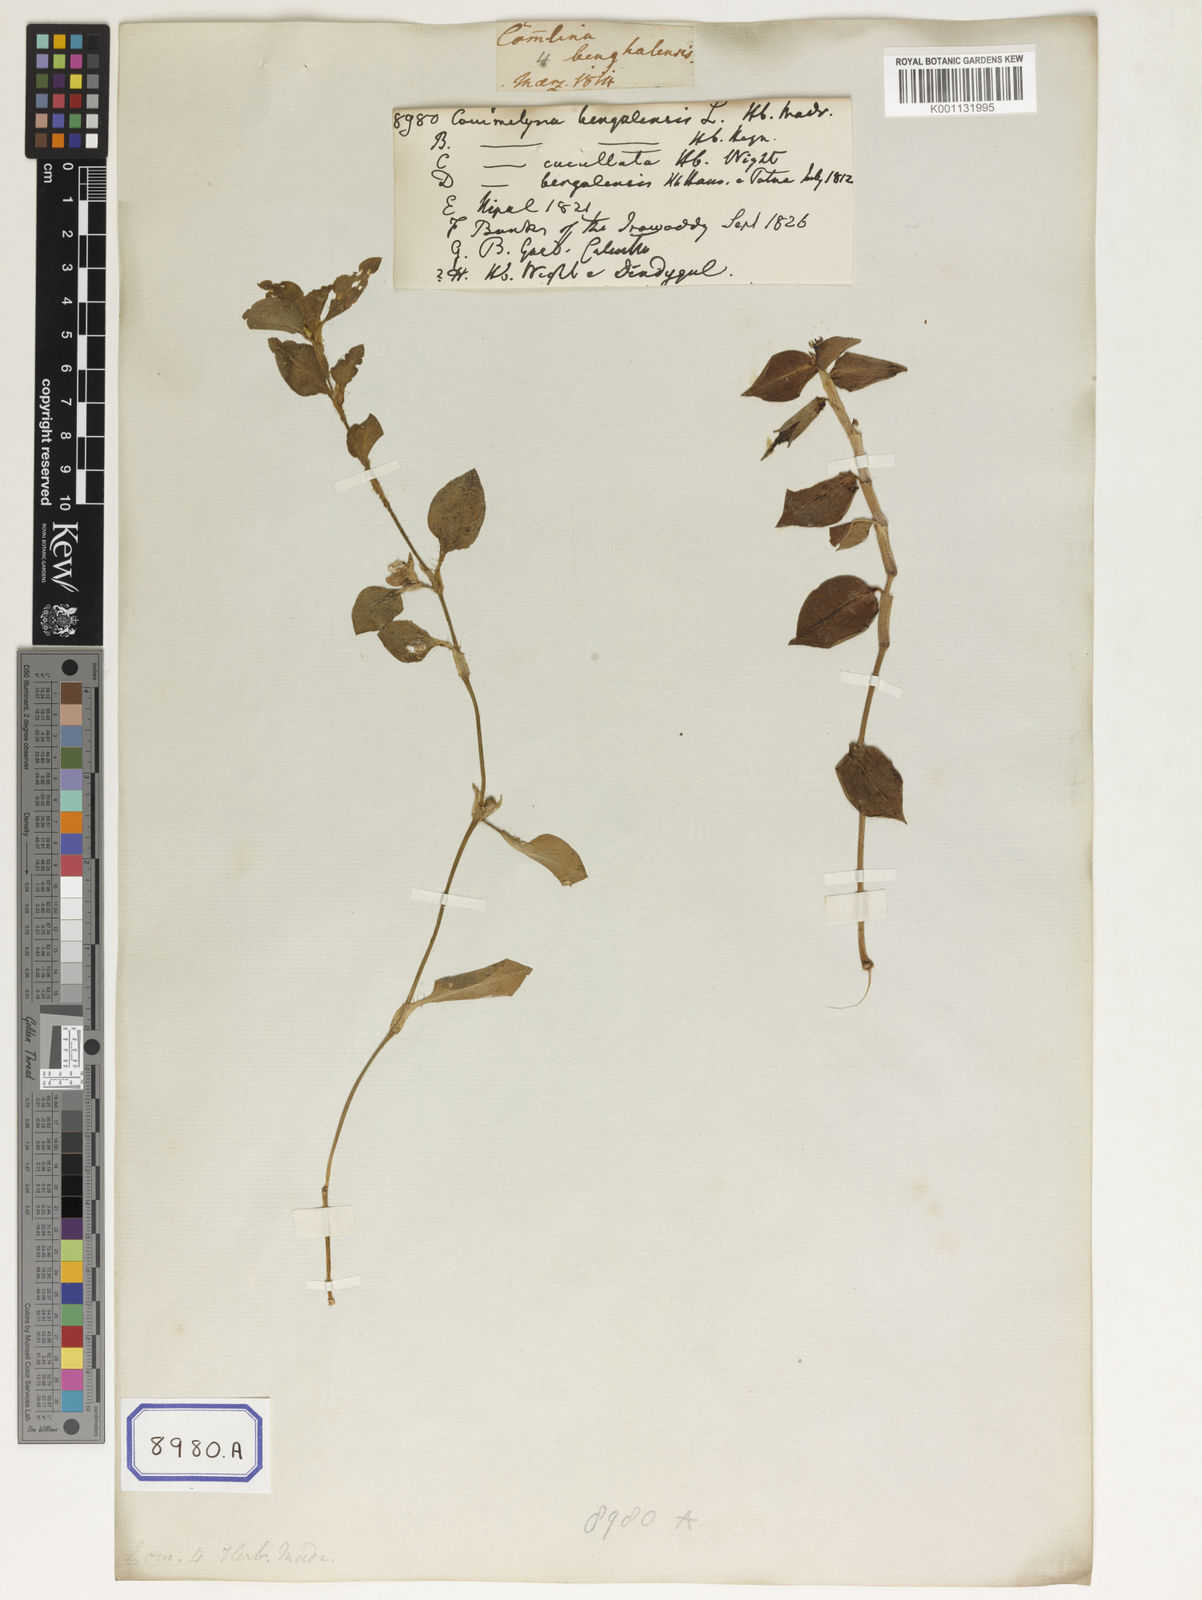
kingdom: Plantae
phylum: Tracheophyta
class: Liliopsida
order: Commelinales
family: Commelinaceae
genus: Commelina
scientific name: Commelina benghalensis
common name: Jio
